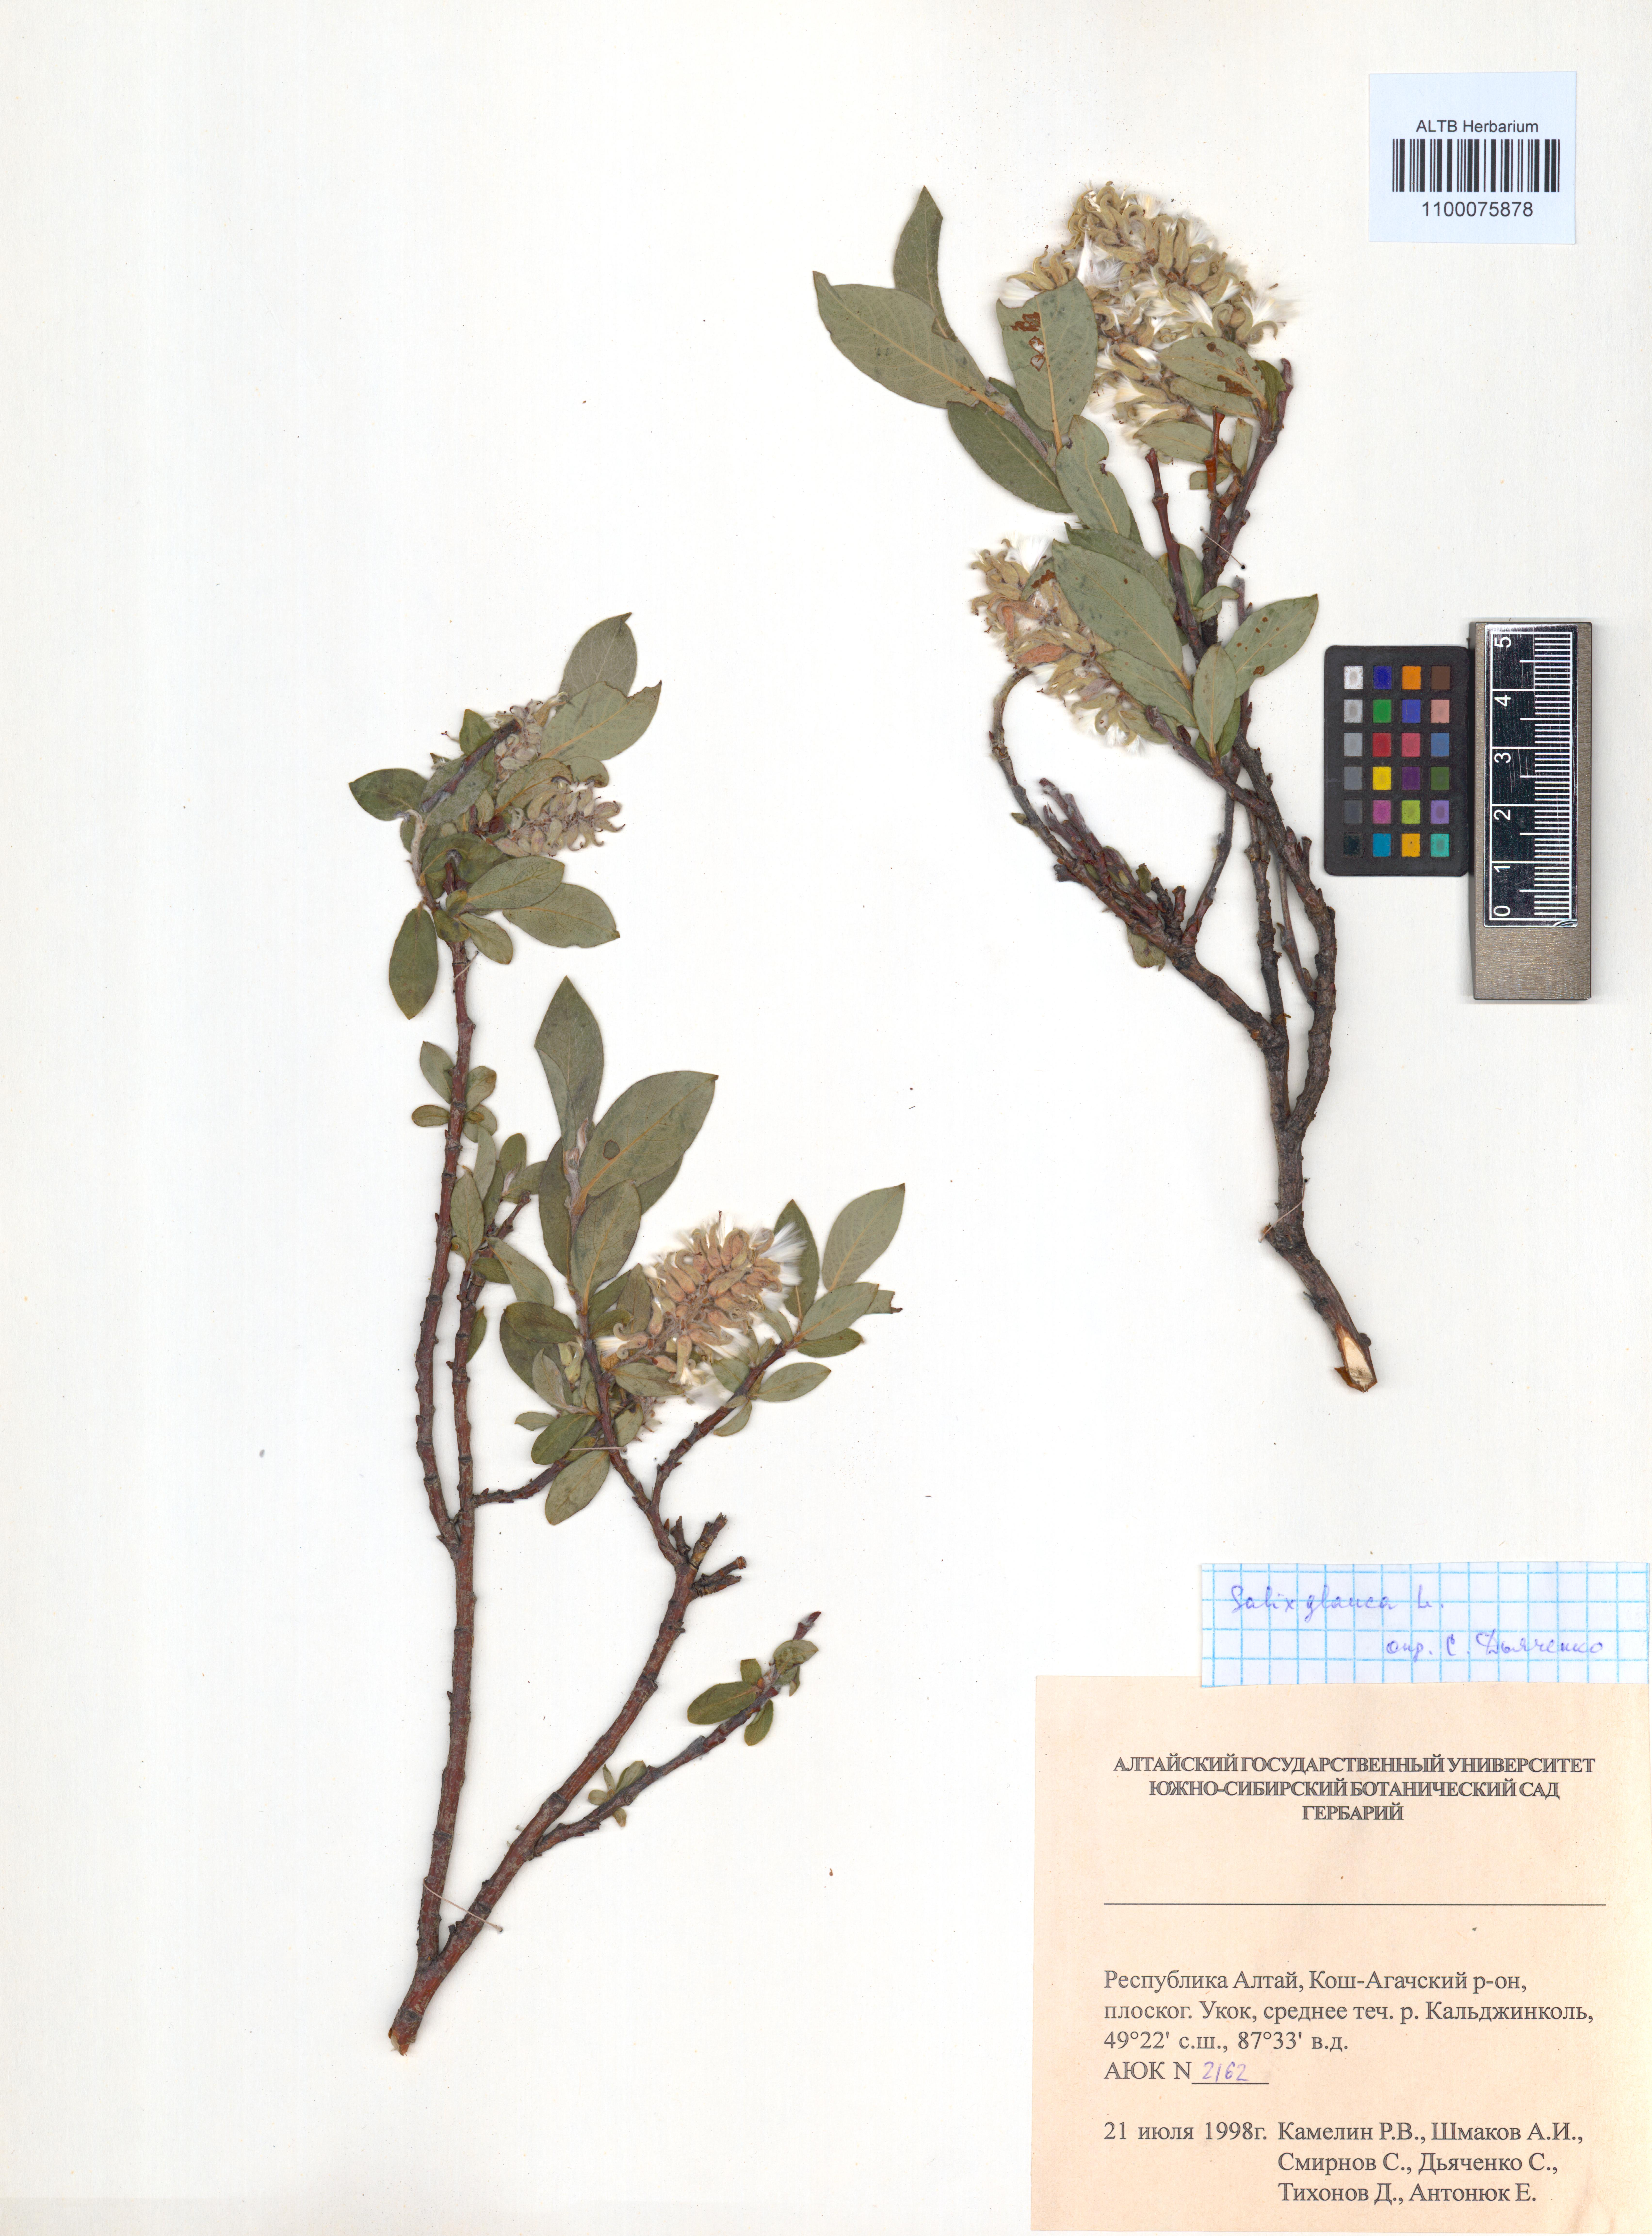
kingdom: Plantae
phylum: Tracheophyta
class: Magnoliopsida
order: Malpighiales
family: Salicaceae
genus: Salix
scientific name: Salix glauca
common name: Glaucous willow
